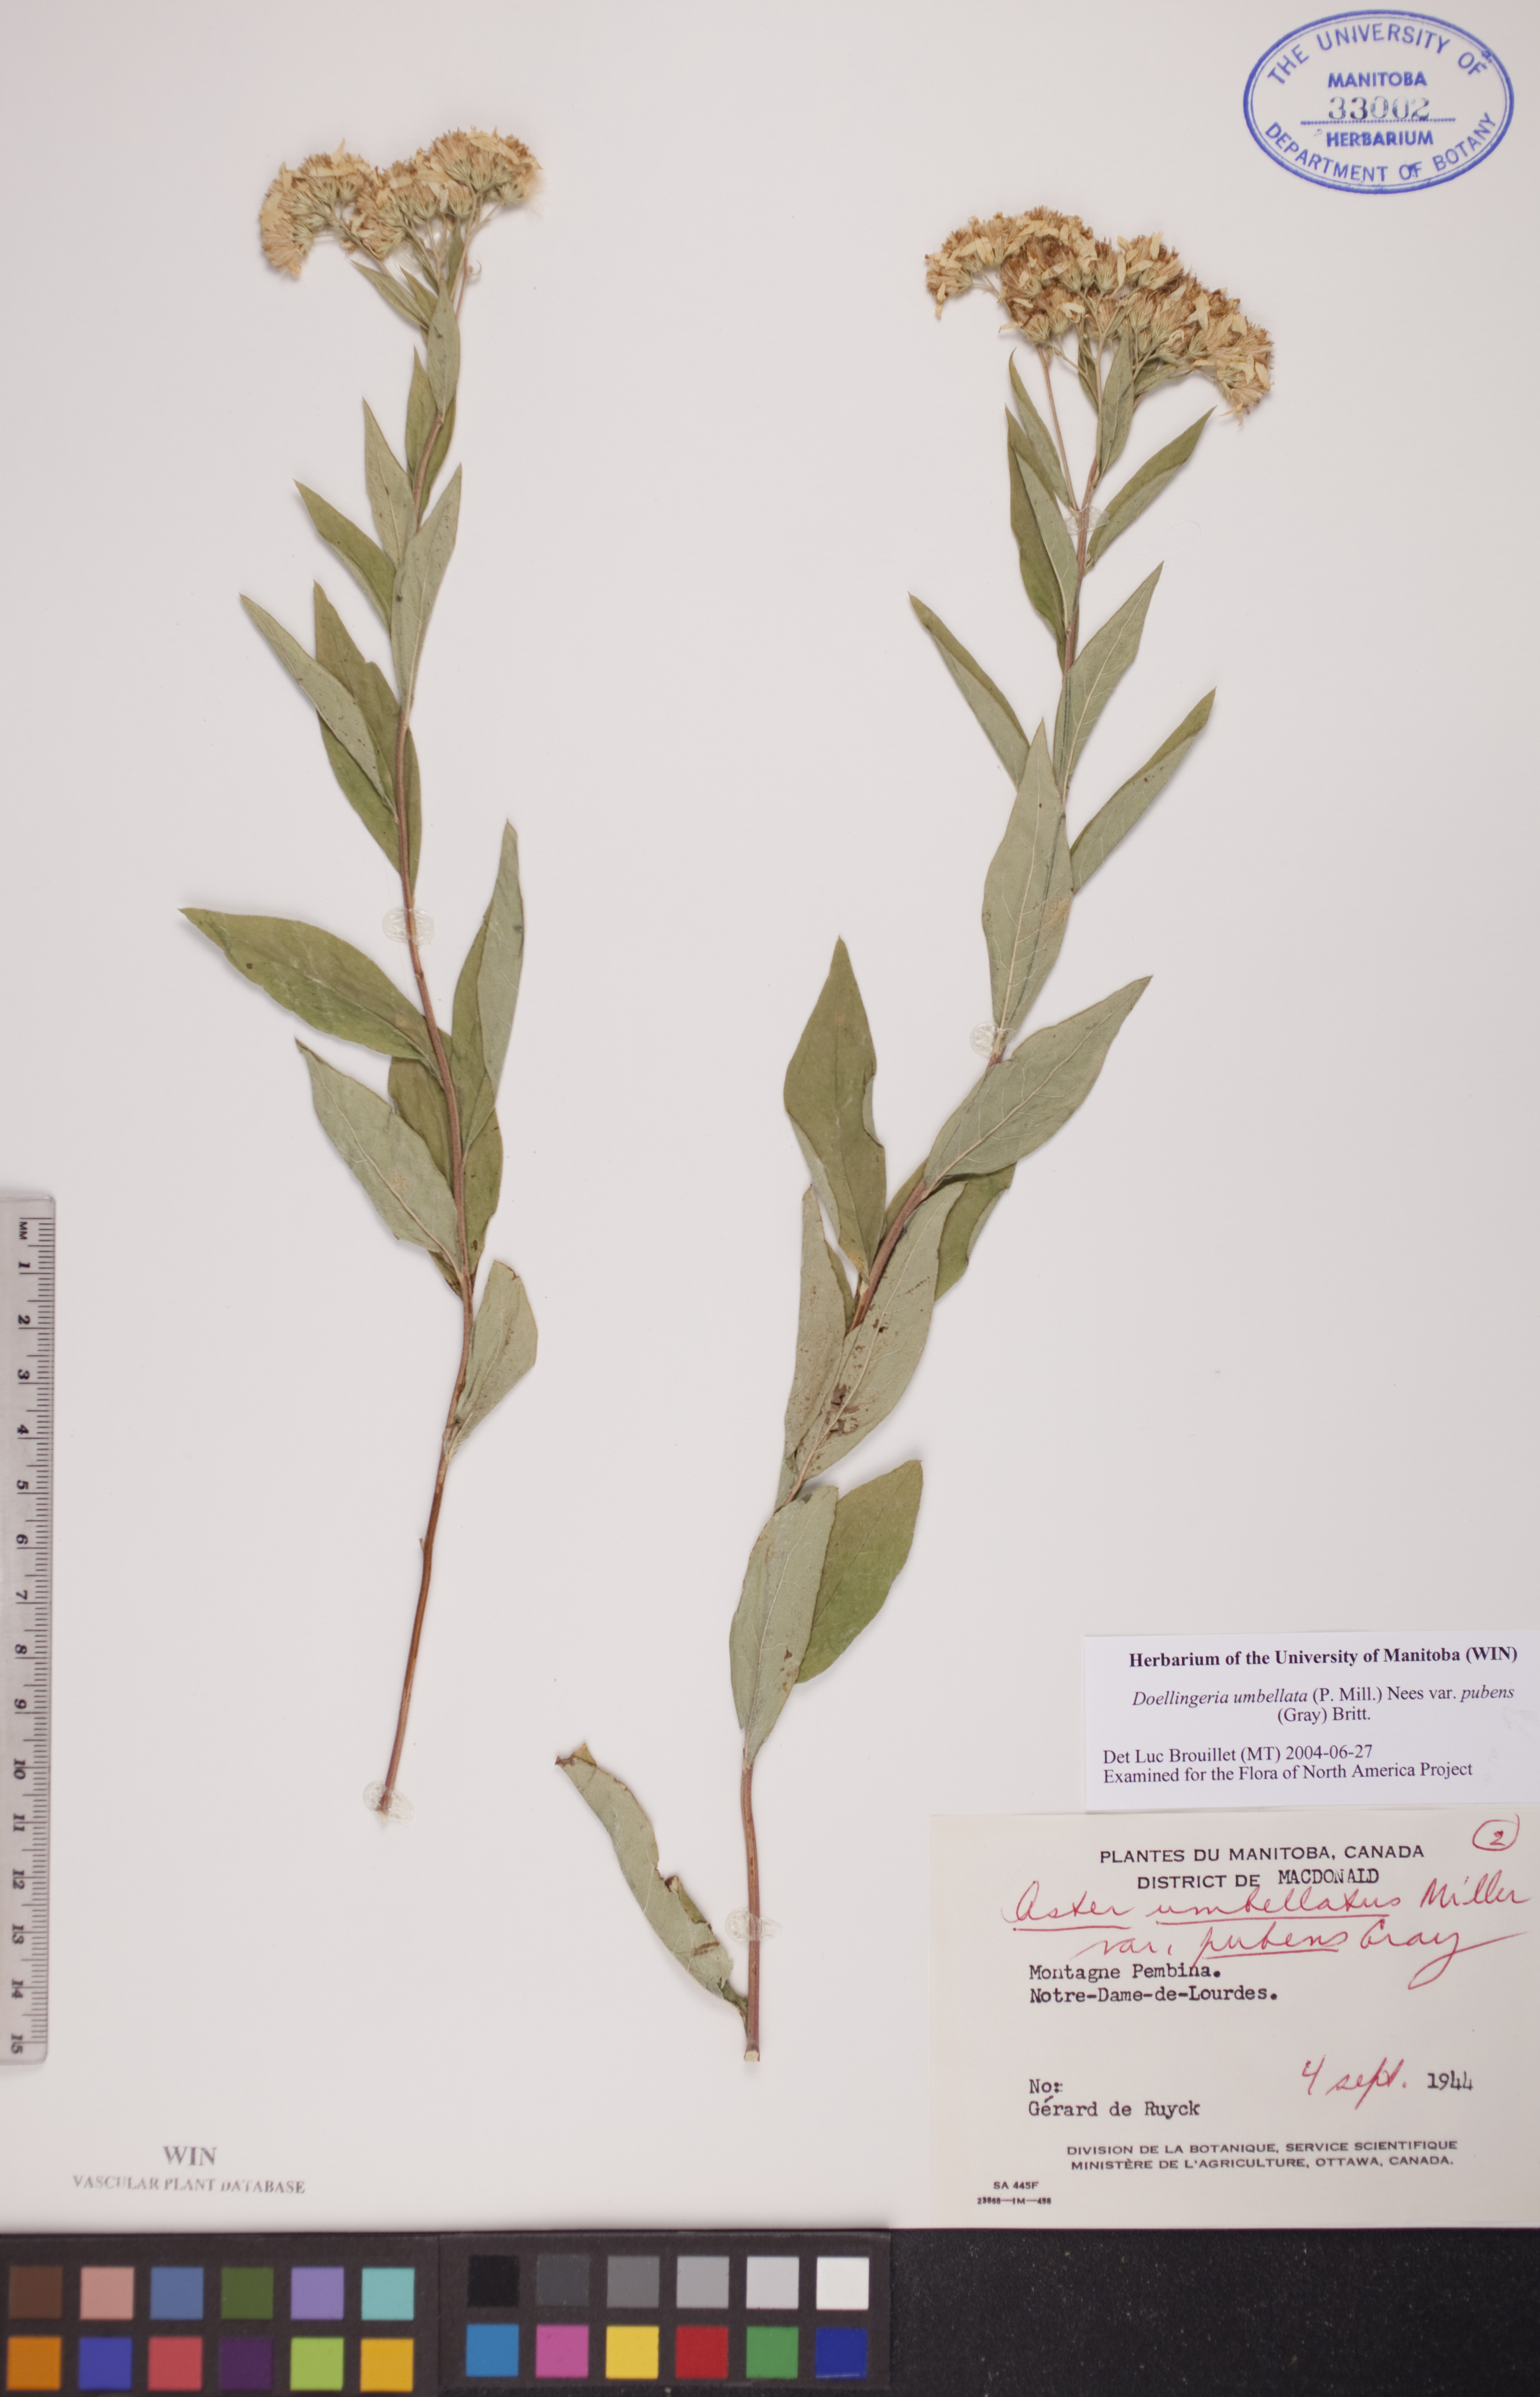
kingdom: Plantae
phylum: Tracheophyta
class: Magnoliopsida
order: Asterales
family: Asteraceae
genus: Doellingeria
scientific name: Doellingeria umbellata
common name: Flat-top white aster
